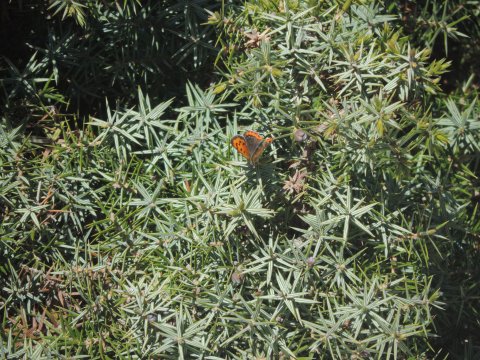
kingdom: Animalia
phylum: Arthropoda
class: Insecta
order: Lepidoptera
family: Lycaenidae
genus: Lycaena
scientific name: Lycaena phlaeas
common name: American Copper
